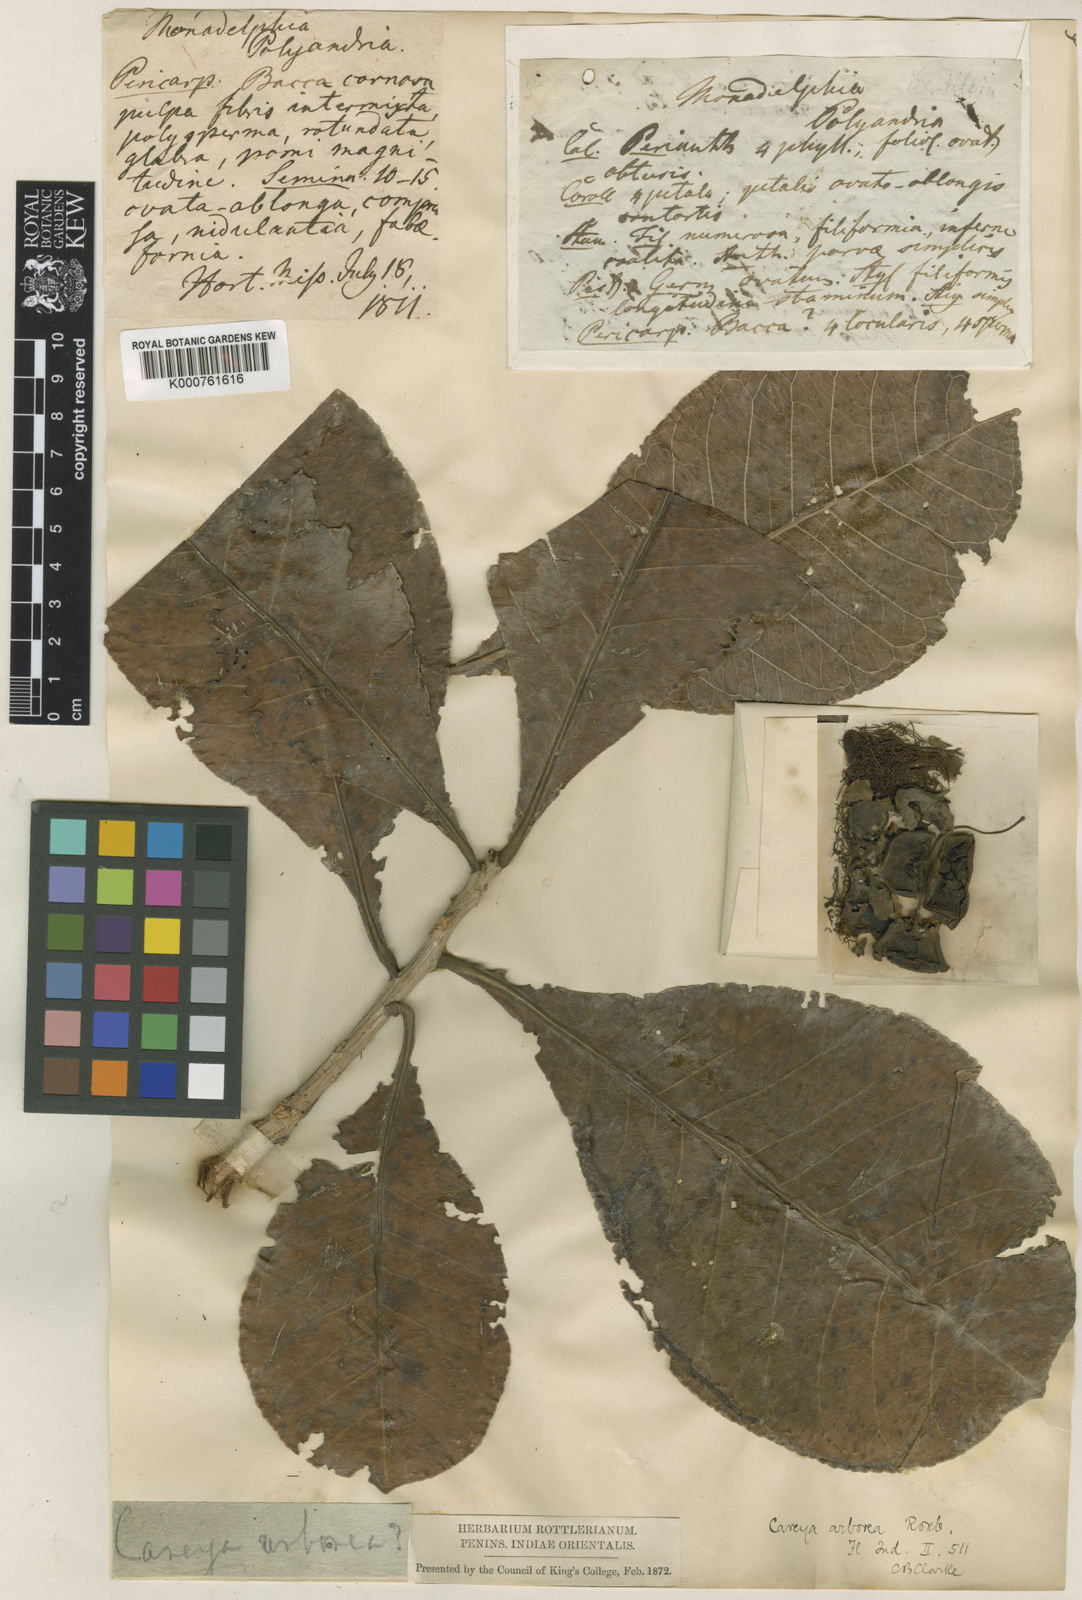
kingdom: Plantae
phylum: Tracheophyta
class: Magnoliopsida
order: Ericales
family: Lecythidaceae
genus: Careya
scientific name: Careya arborea
